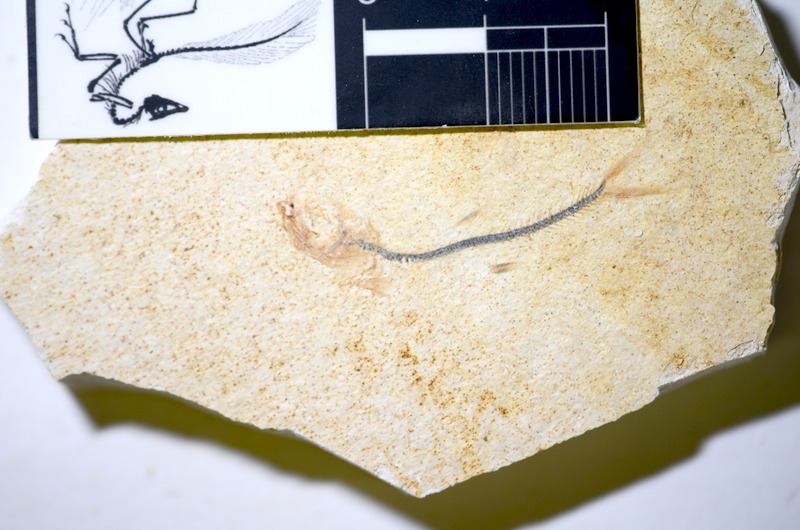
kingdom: Animalia
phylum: Chordata
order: Salmoniformes
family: Orthogonikleithridae
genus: Orthogonikleithrus
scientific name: Orthogonikleithrus hoelli
